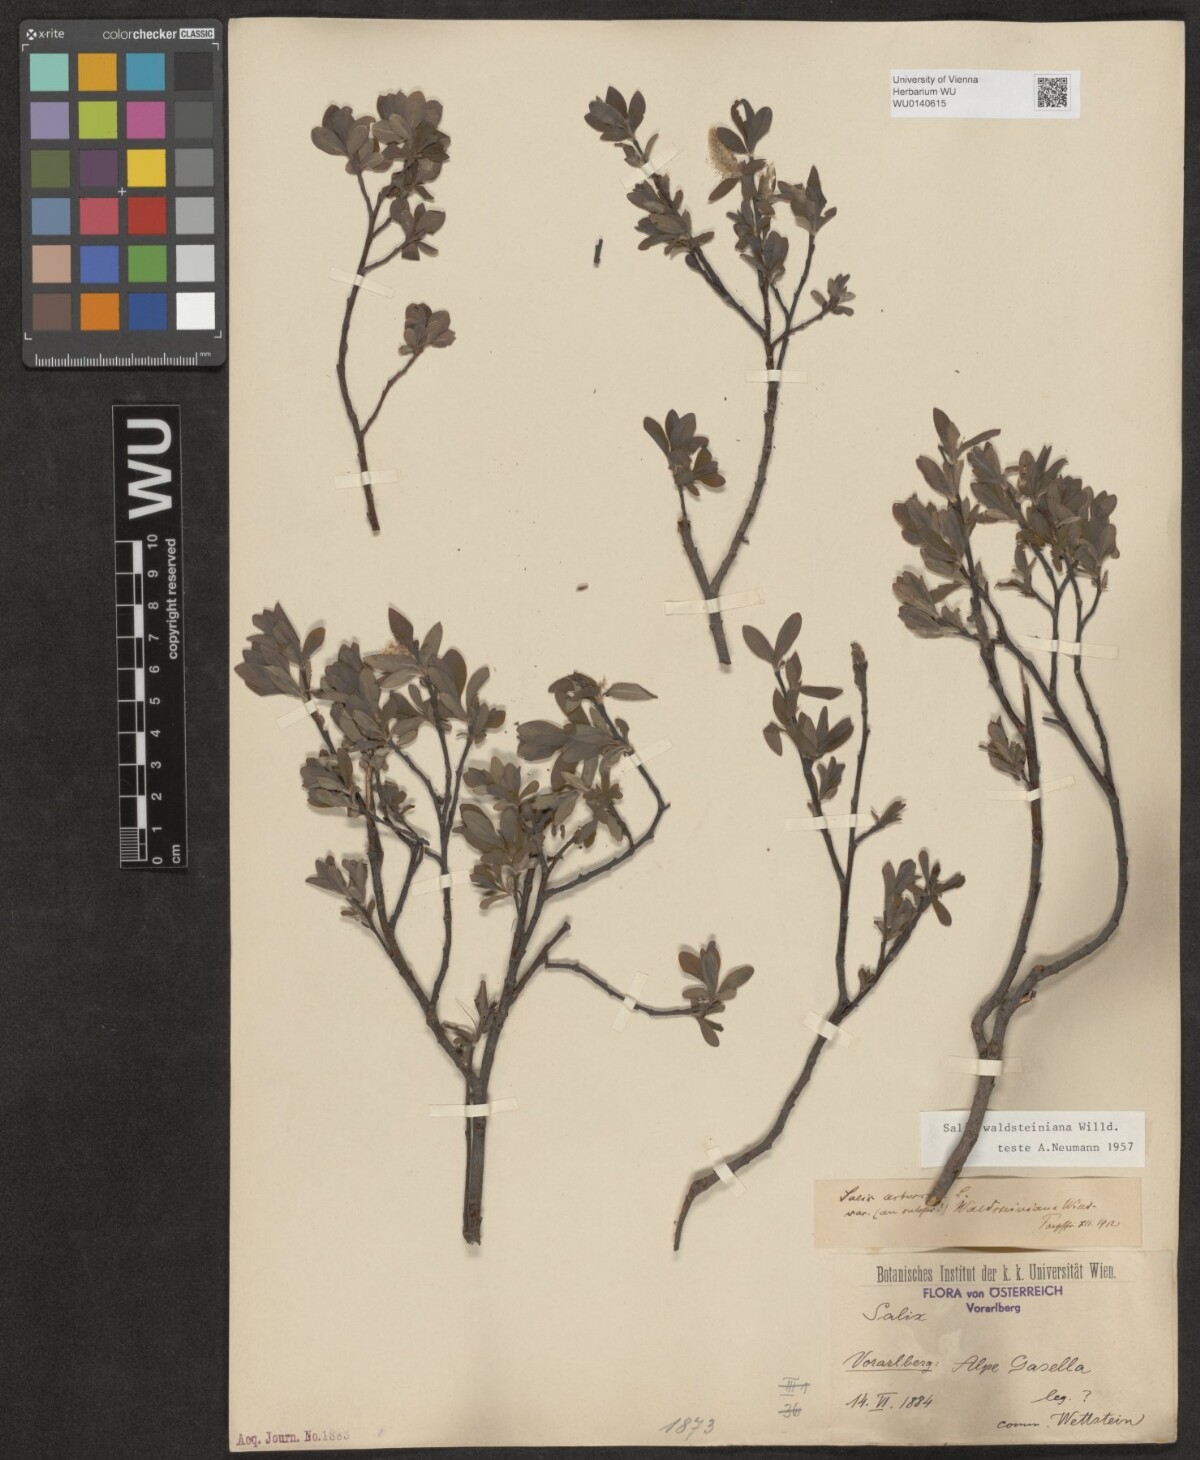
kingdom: Plantae
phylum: Tracheophyta
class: Magnoliopsida
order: Malpighiales
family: Salicaceae
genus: Salix
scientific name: Salix waldsteiniana
